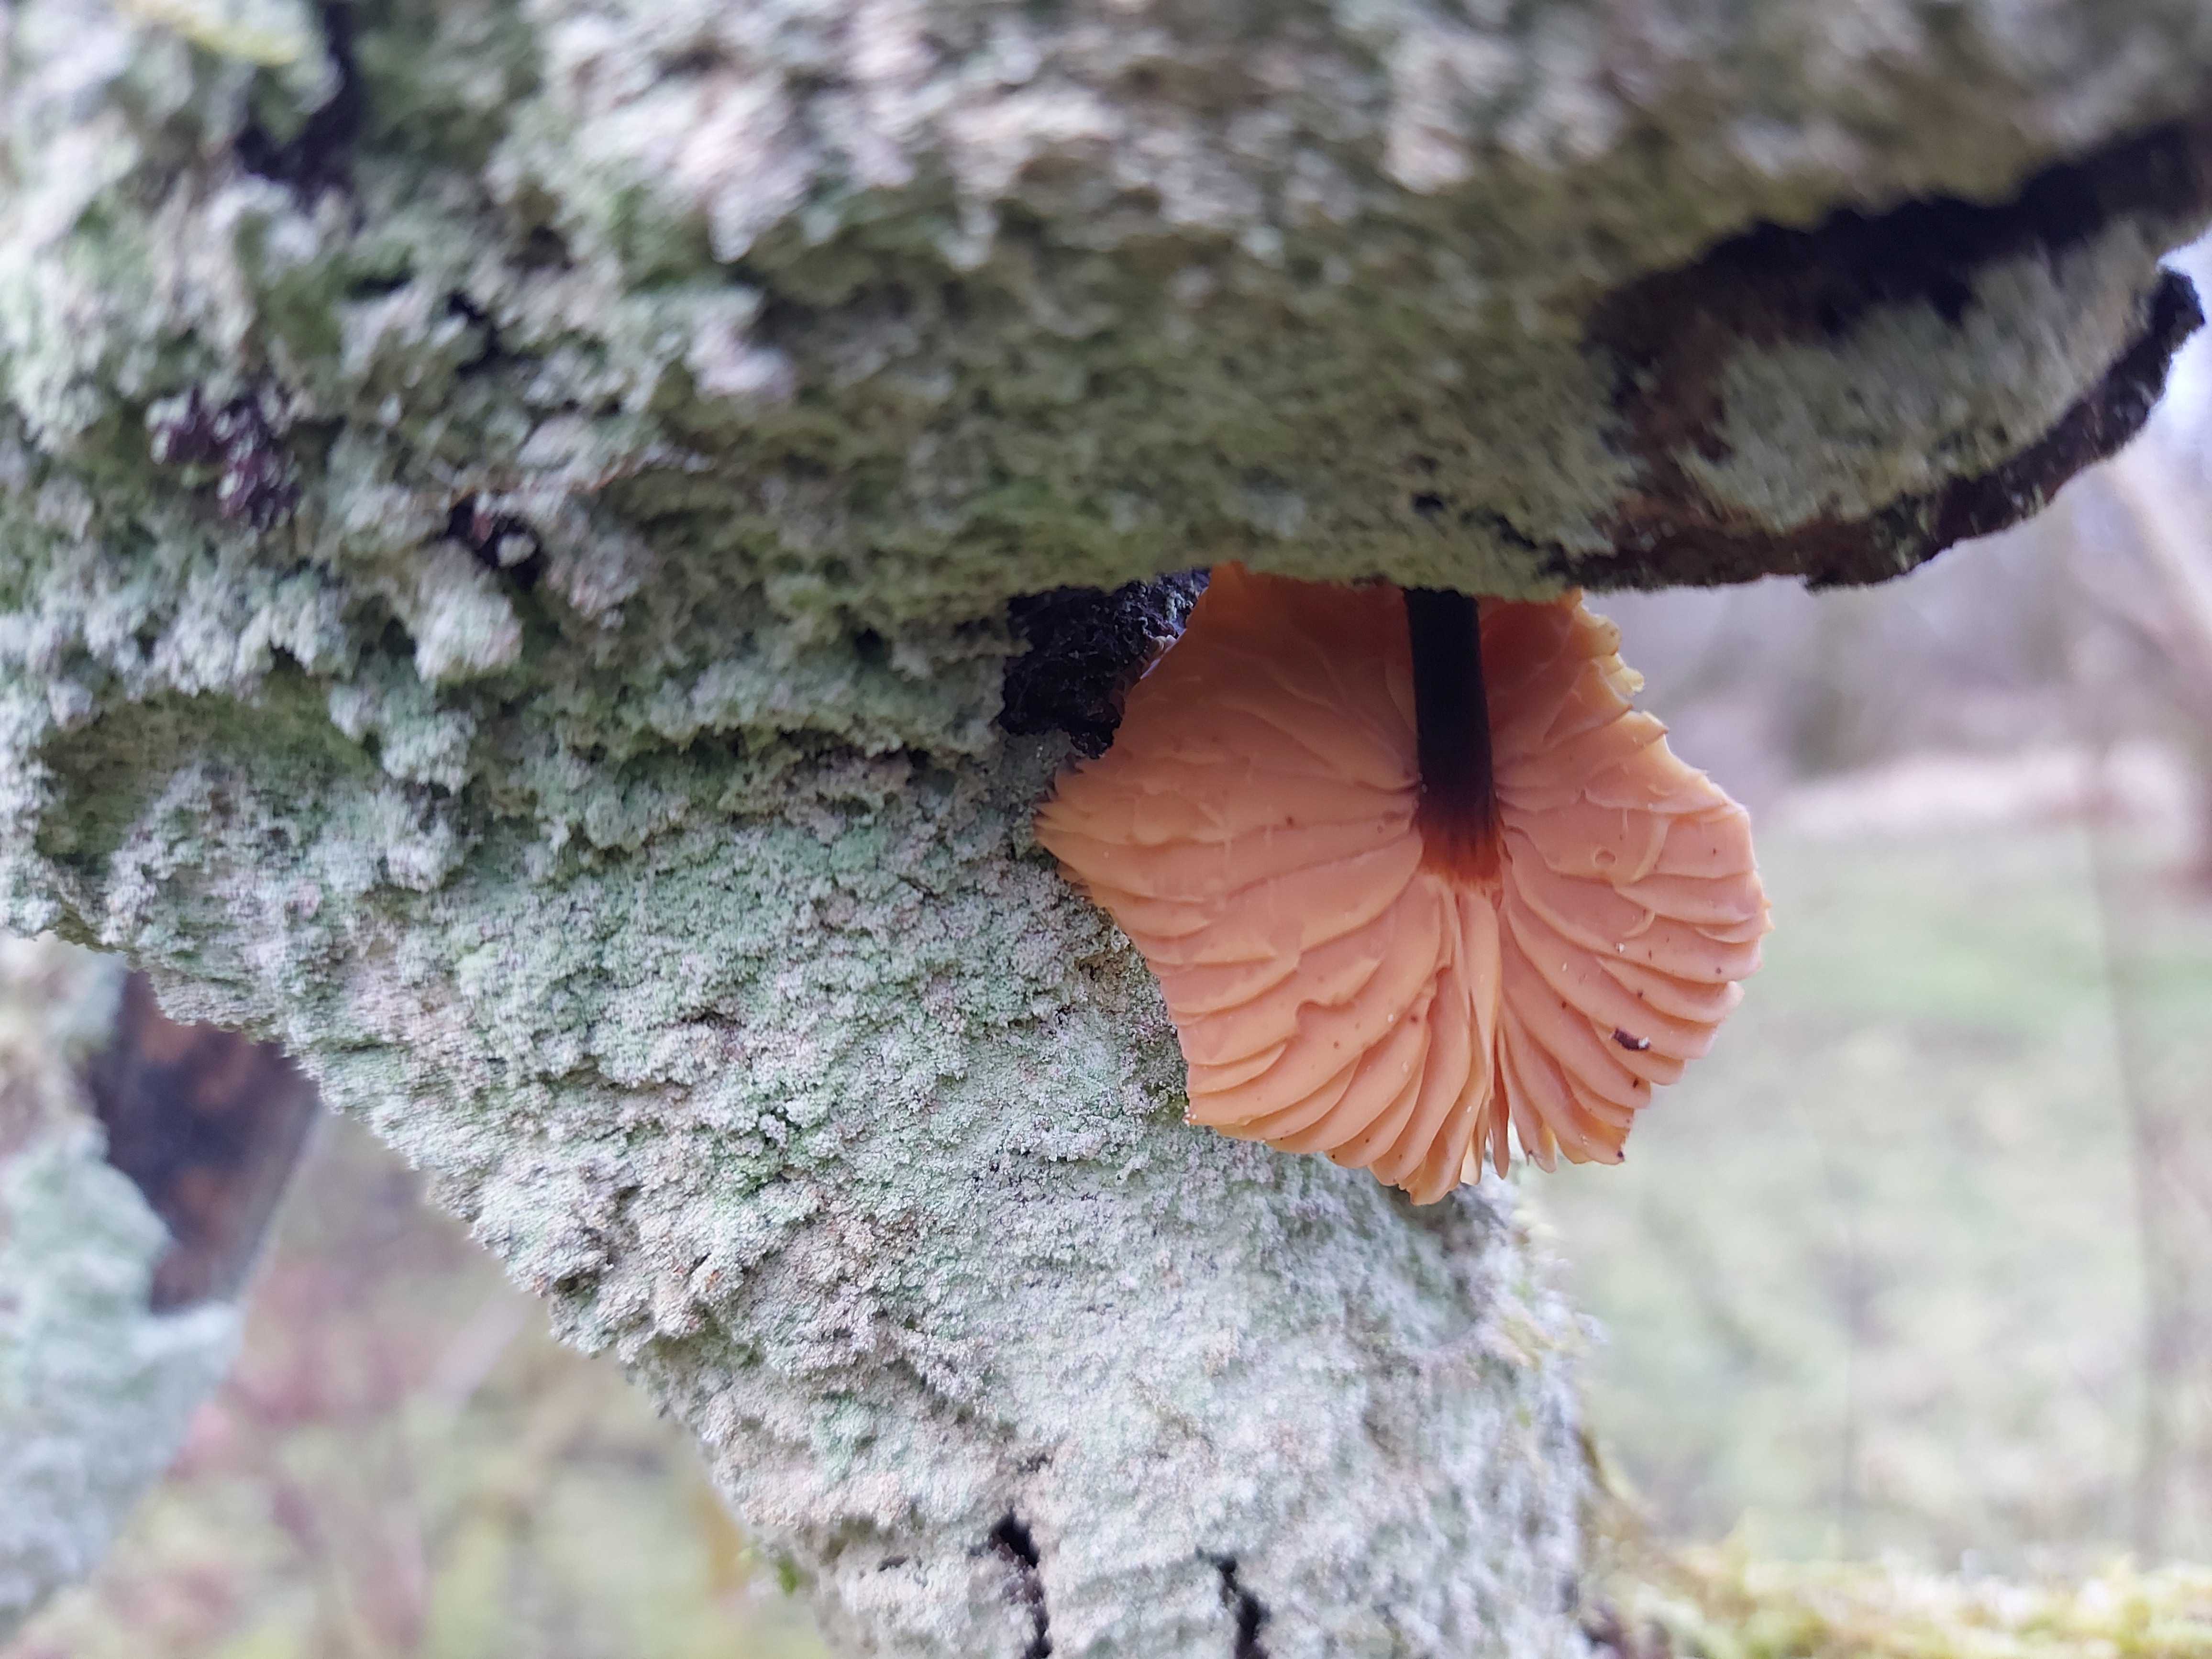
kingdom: Fungi
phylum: Basidiomycota
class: Agaricomycetes
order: Agaricales
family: Physalacriaceae
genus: Flammulina
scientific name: Flammulina
